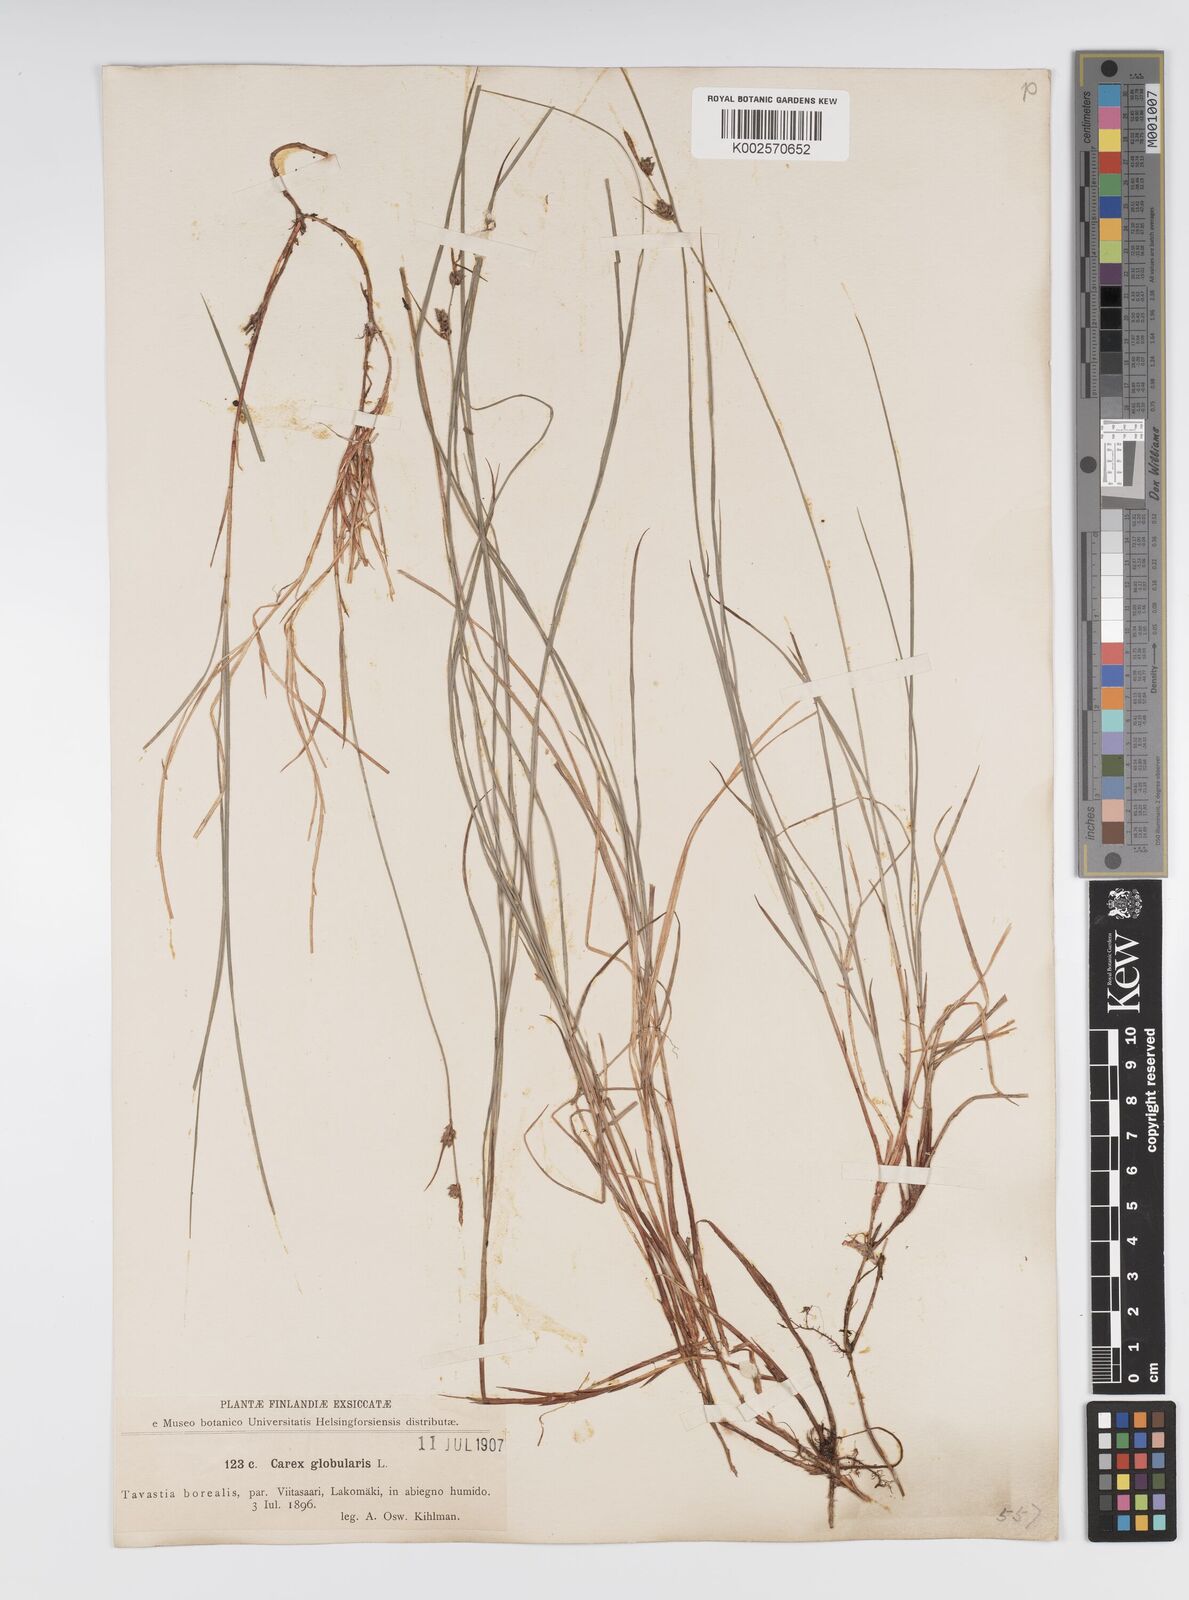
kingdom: Plantae
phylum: Tracheophyta
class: Liliopsida
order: Poales
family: Cyperaceae
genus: Carex
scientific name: Carex globularis
